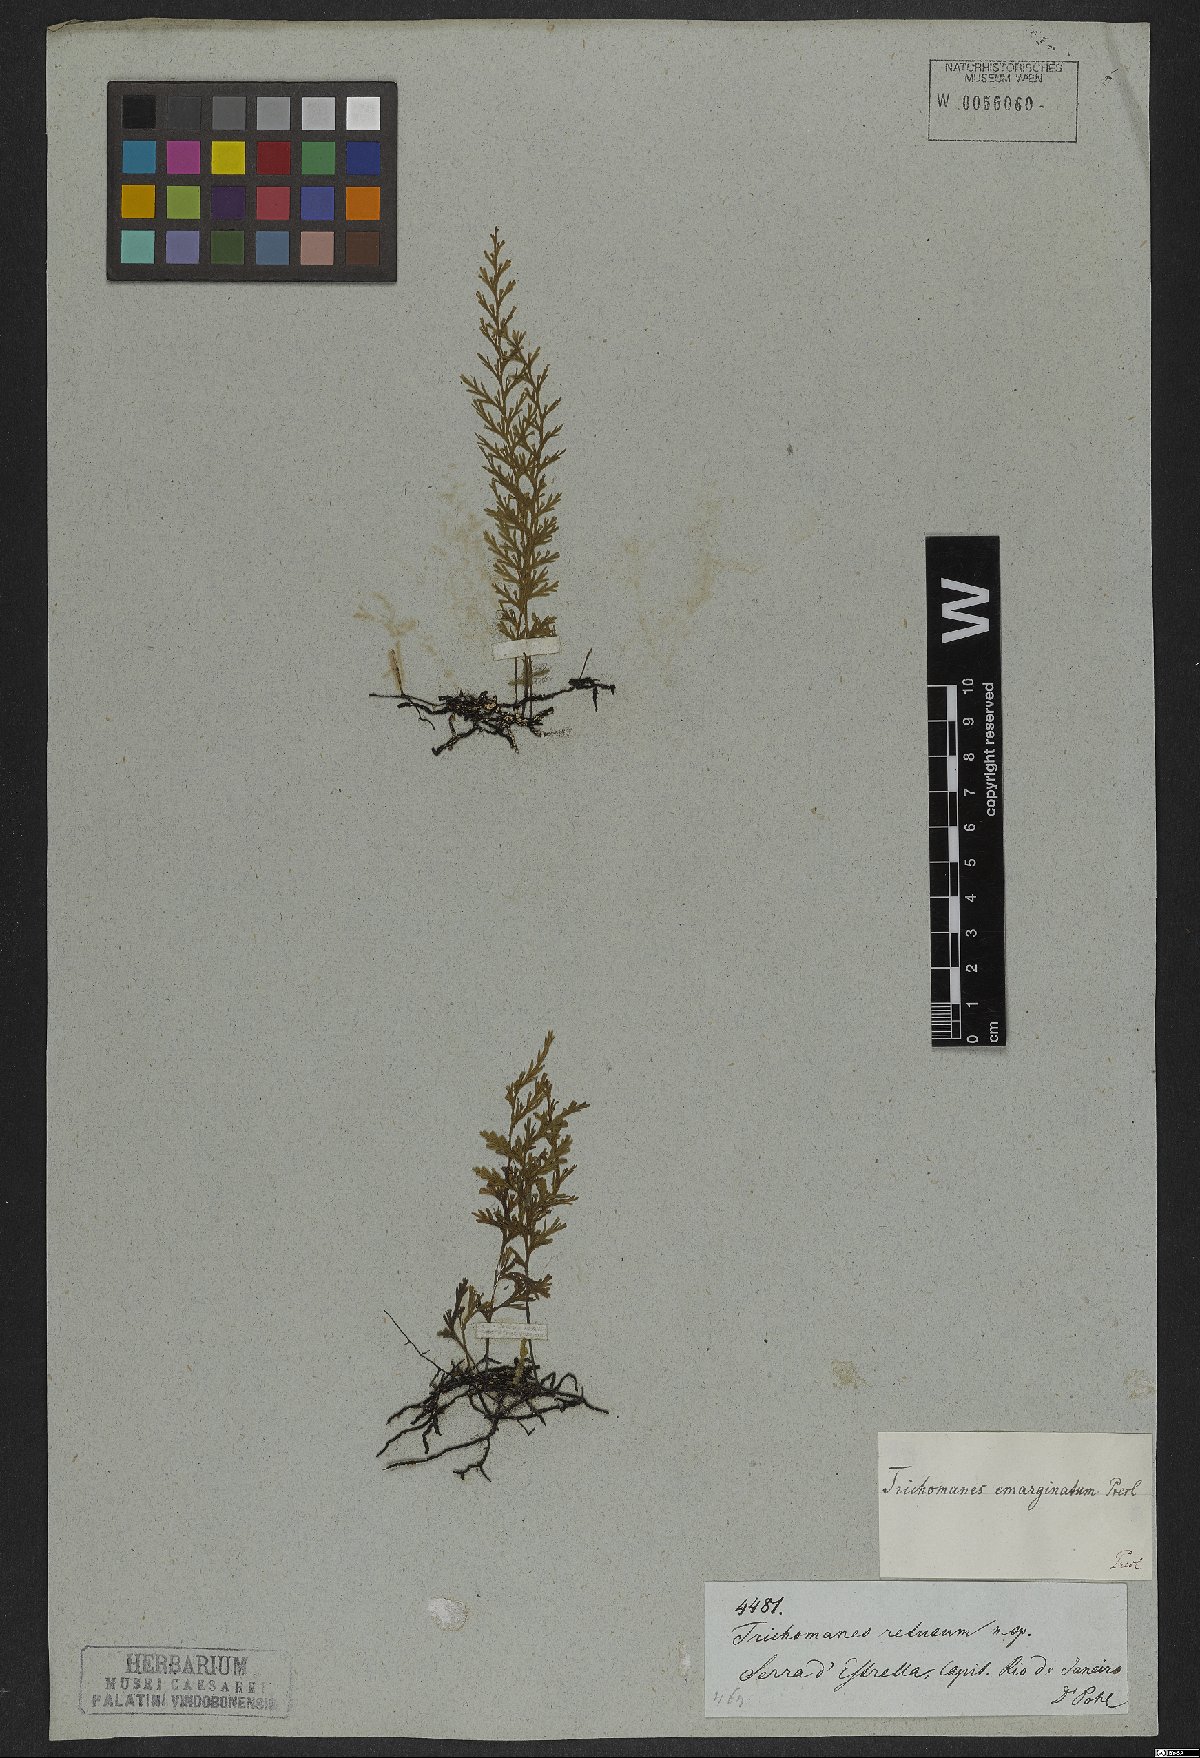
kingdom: Plantae
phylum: Tracheophyta
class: Polypodiopsida
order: Hymenophyllales
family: Hymenophyllaceae
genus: Polyphlebium
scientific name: Polyphlebium pyxidiferum
